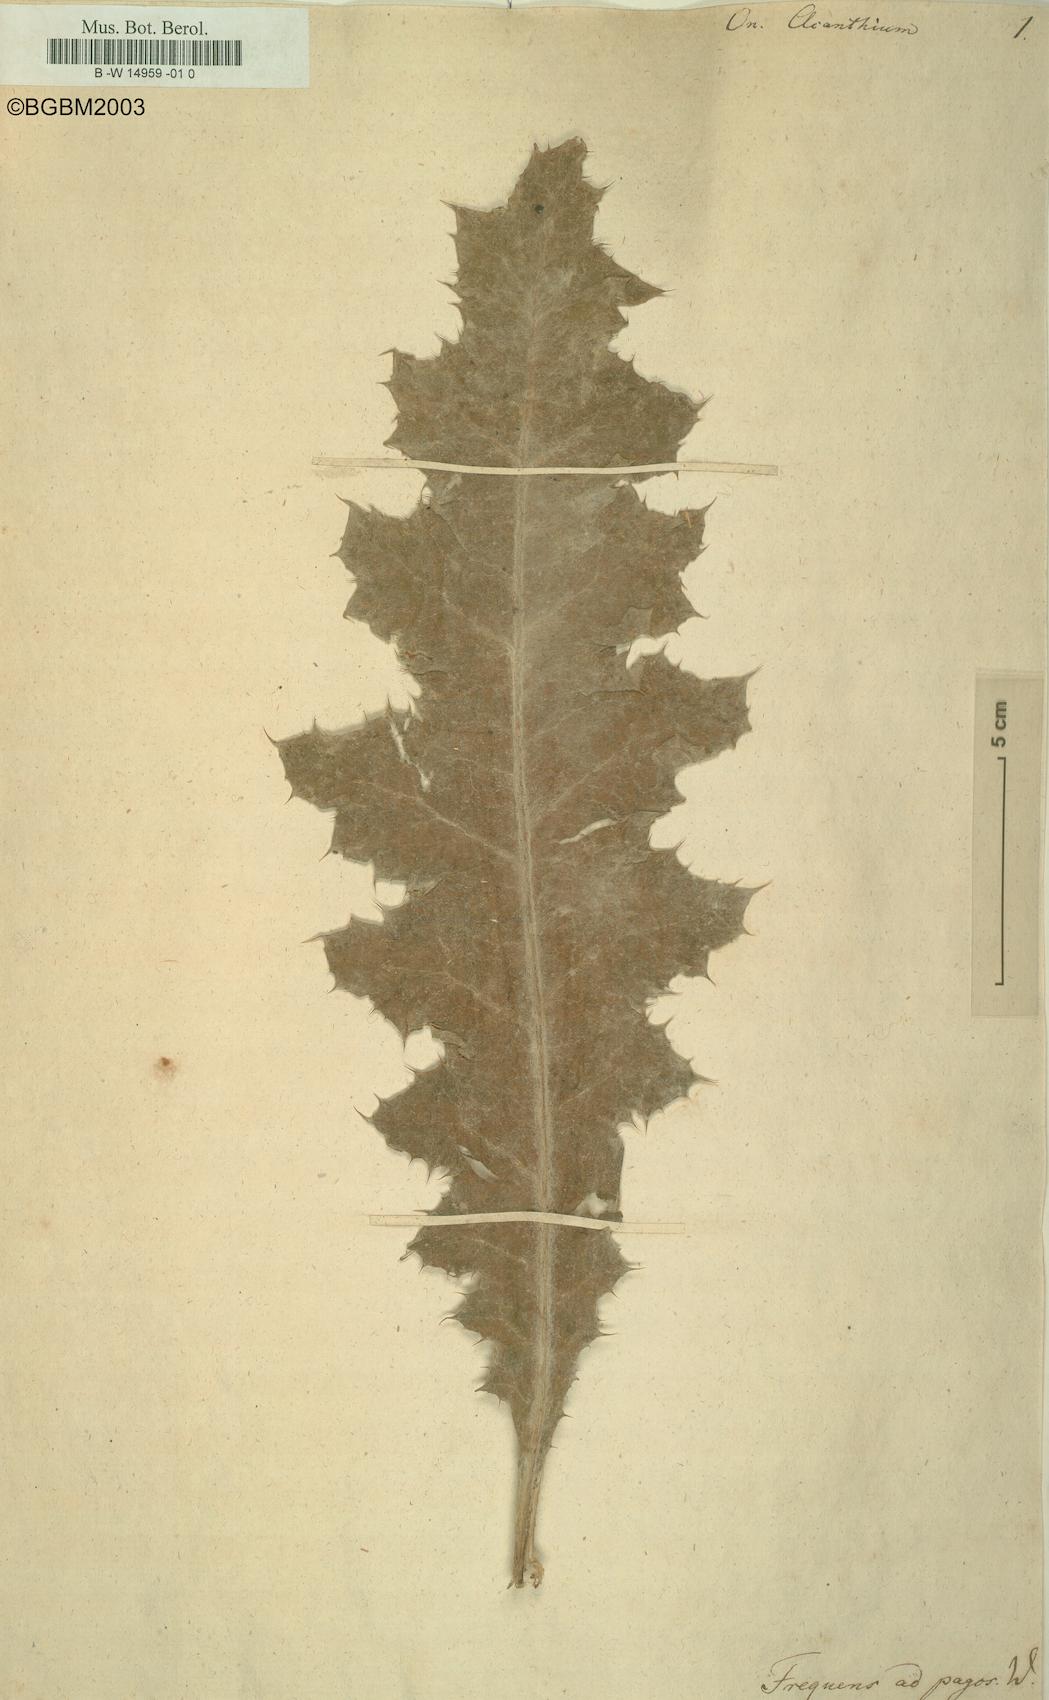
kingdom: Plantae
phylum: Tracheophyta
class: Magnoliopsida
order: Asterales
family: Asteraceae
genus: Onopordum
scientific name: Onopordum acanthium
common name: Scotch thistle
